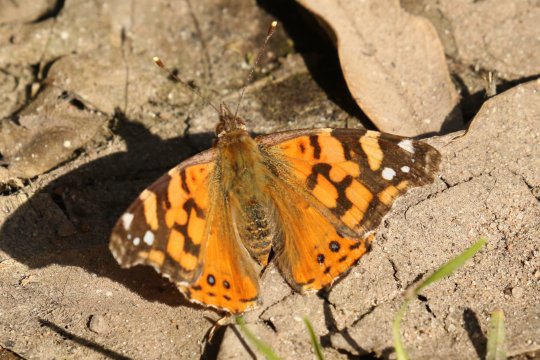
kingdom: Animalia
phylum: Arthropoda
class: Insecta
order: Lepidoptera
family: Nymphalidae
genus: Vanessa
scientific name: Vanessa carye
